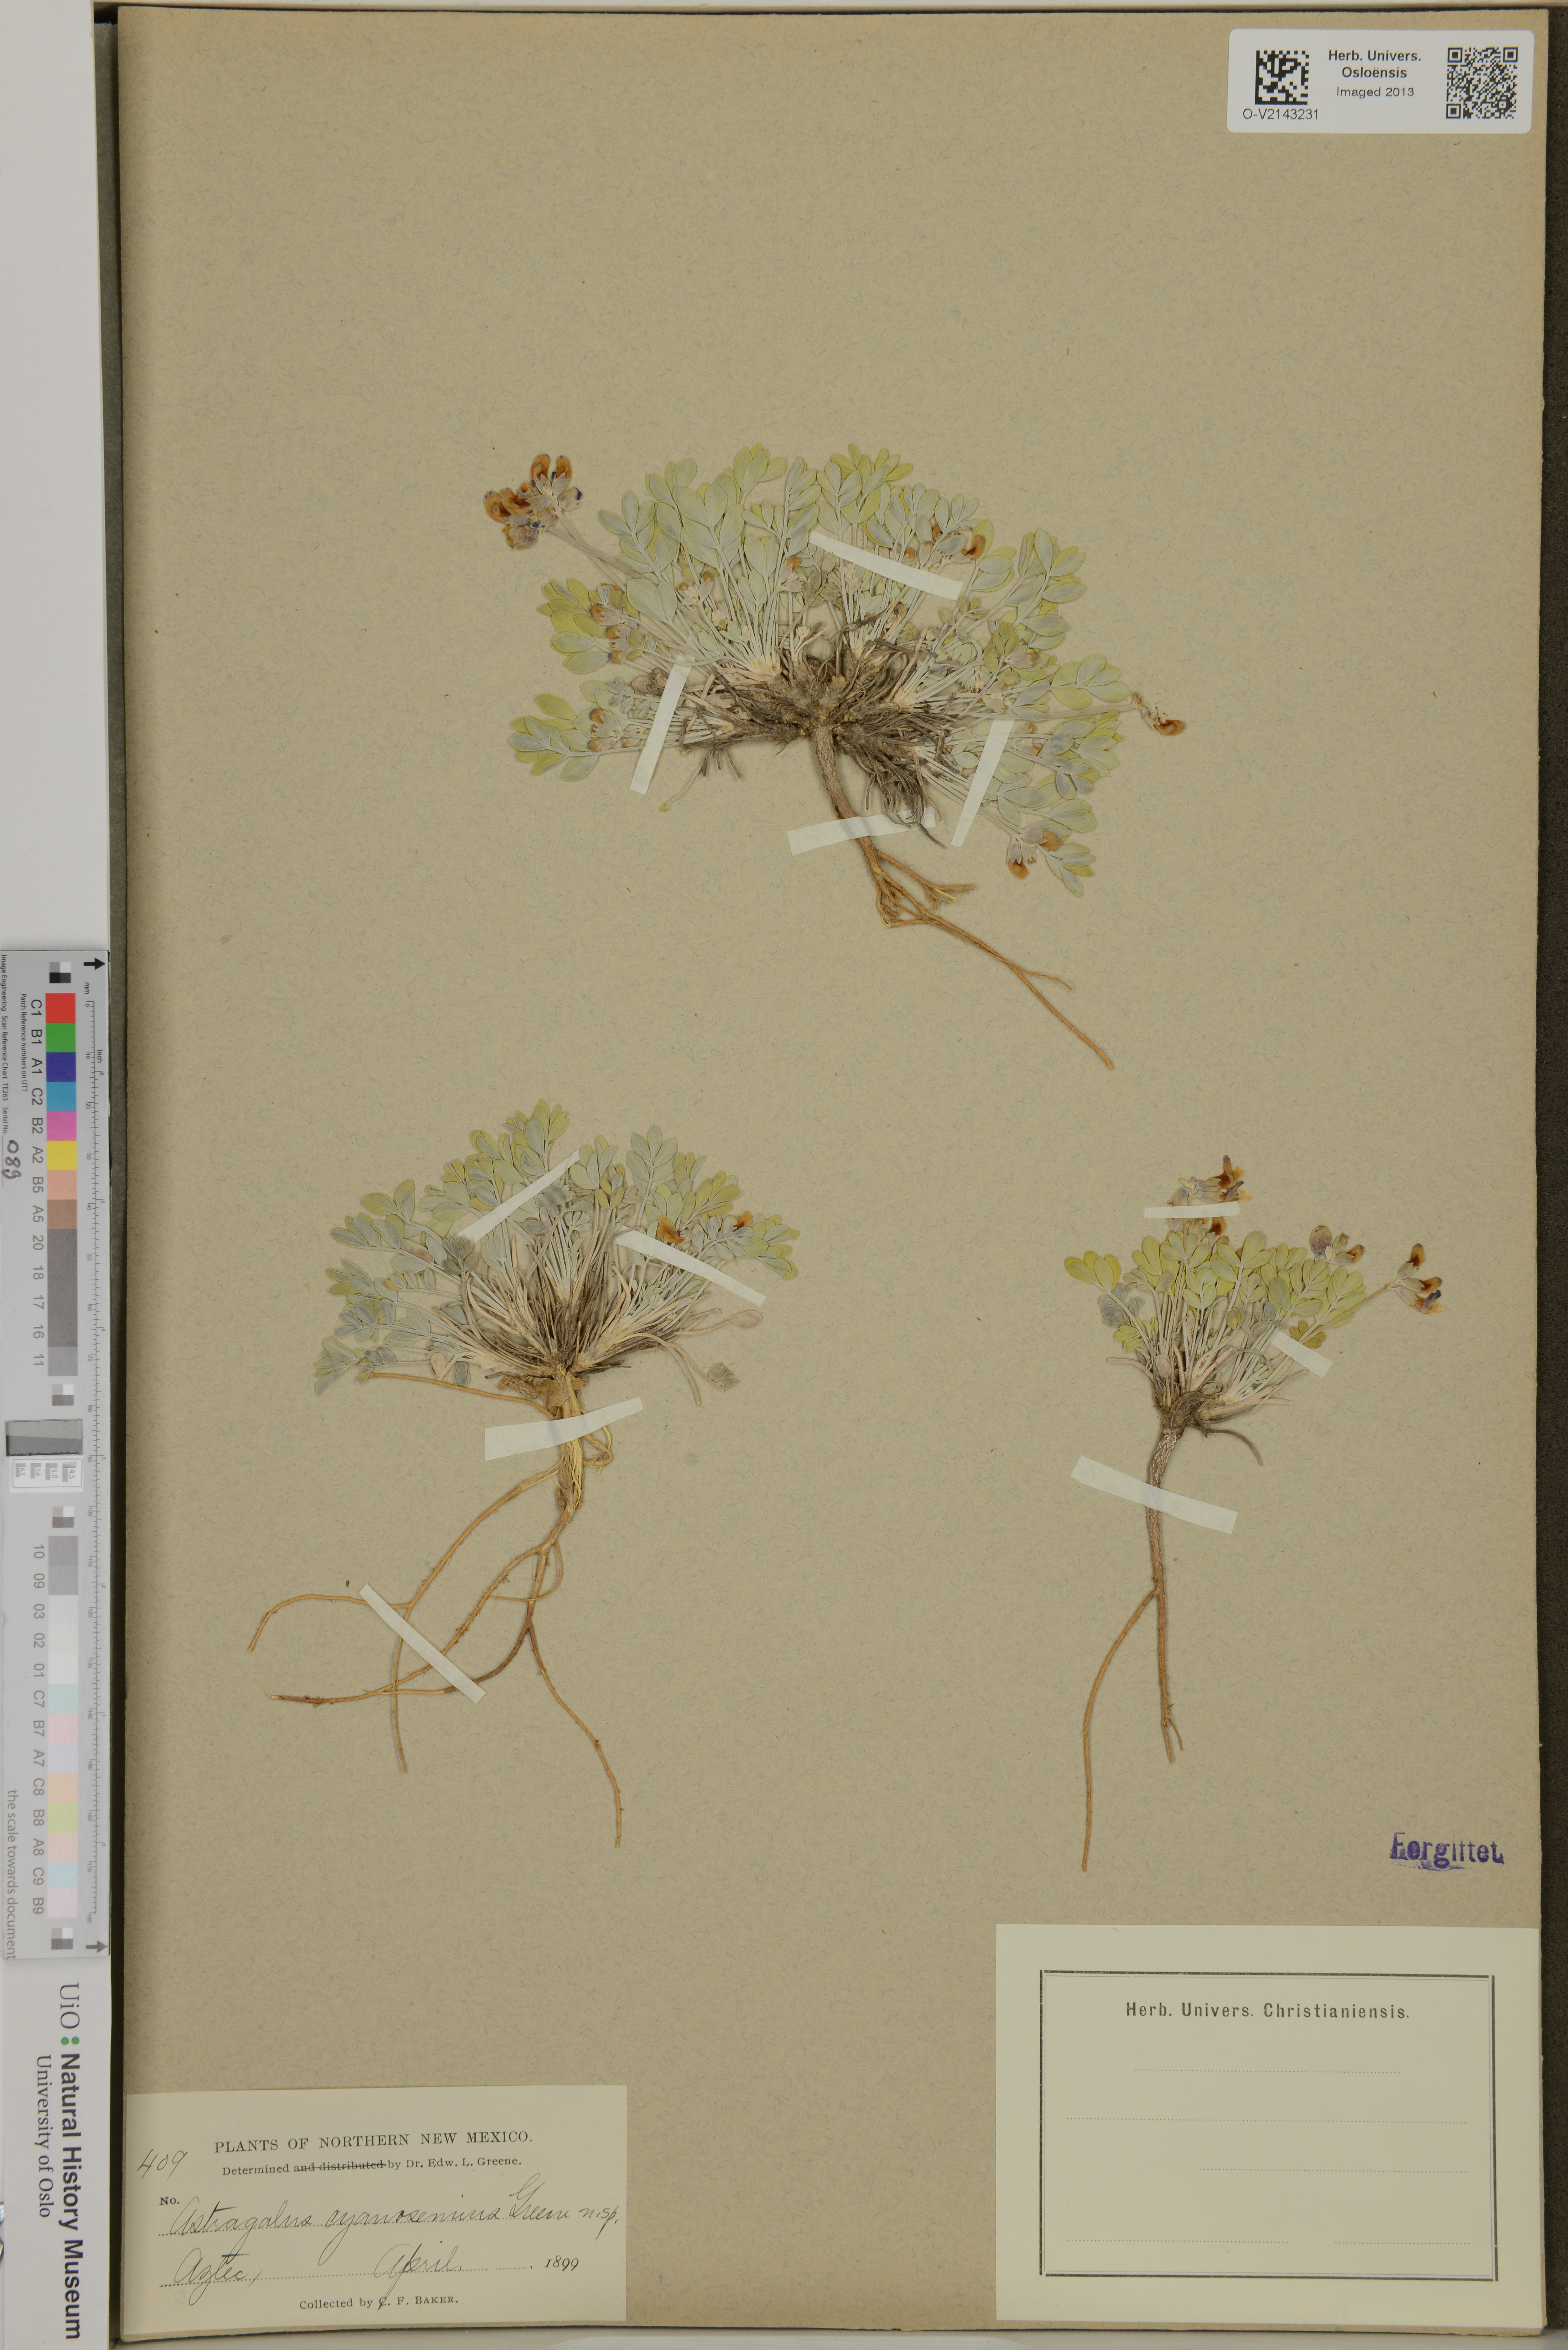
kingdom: Plantae
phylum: Tracheophyta
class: Magnoliopsida
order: Fabales
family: Fabaceae
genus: Astragalus
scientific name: Astragalus cyanoseminus
